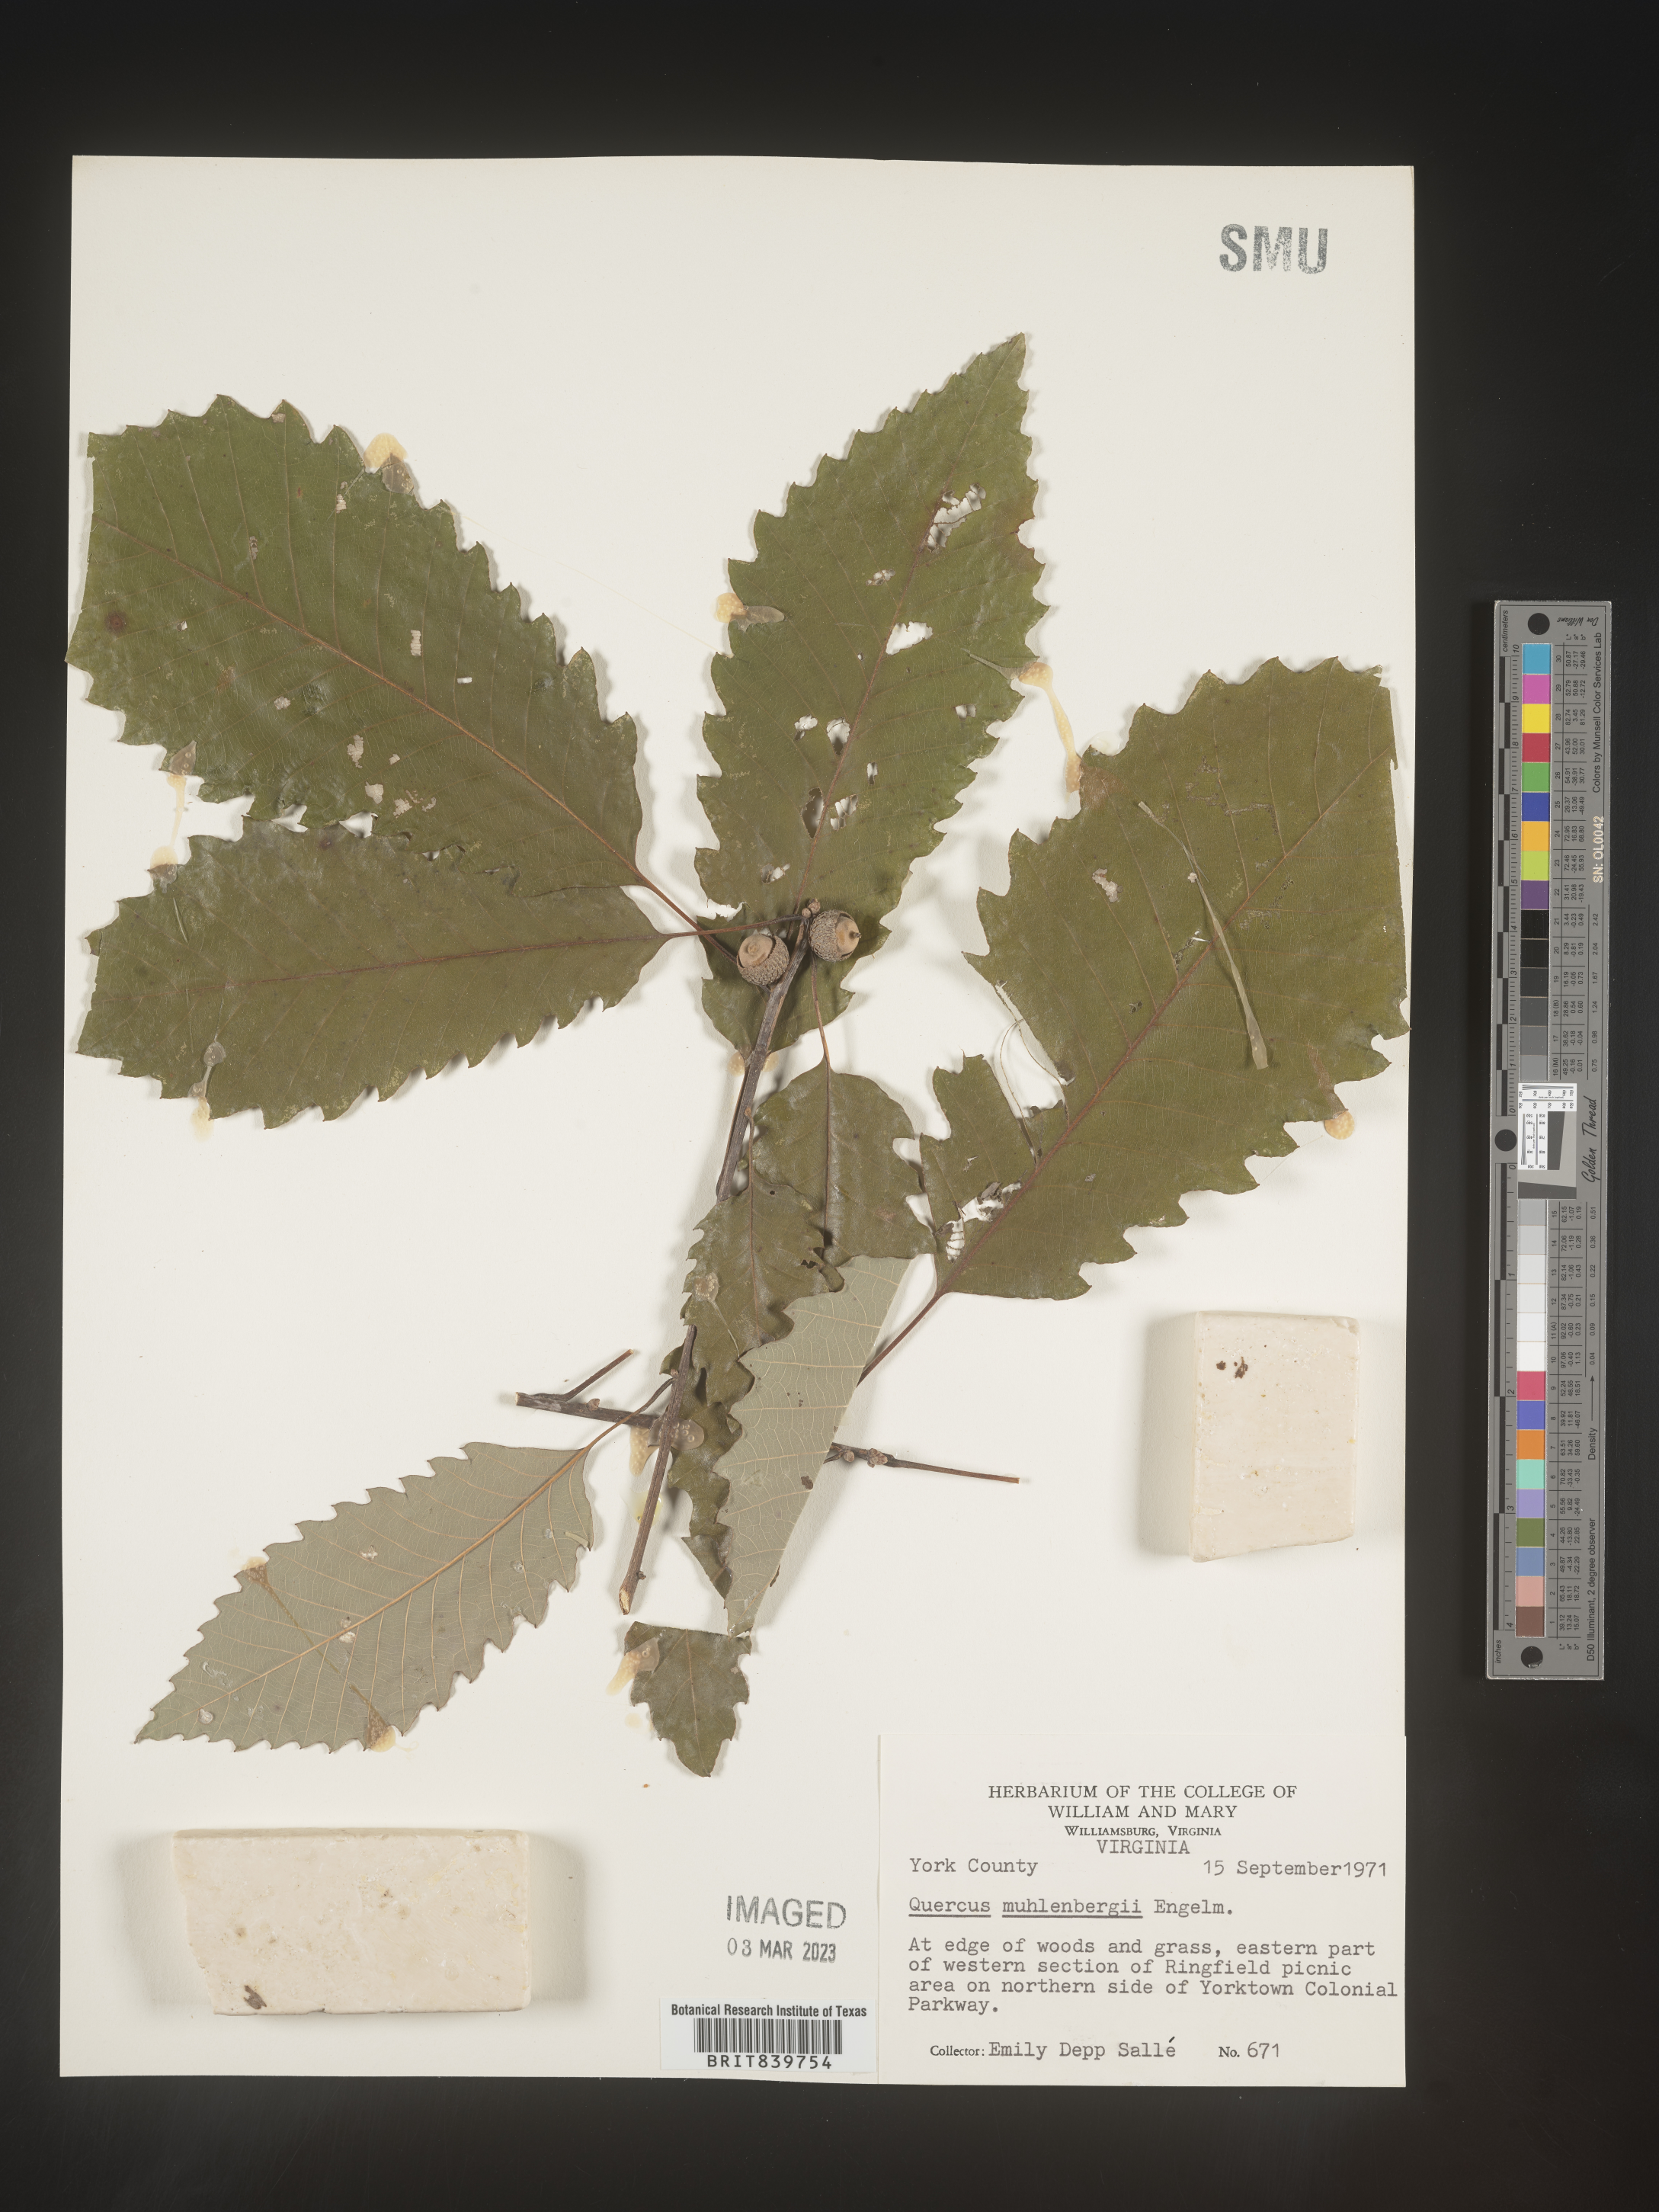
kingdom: Plantae
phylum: Tracheophyta
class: Magnoliopsida
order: Fagales
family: Fagaceae
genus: Quercus
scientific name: Quercus muehlenbergii
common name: Chinkapin oak
